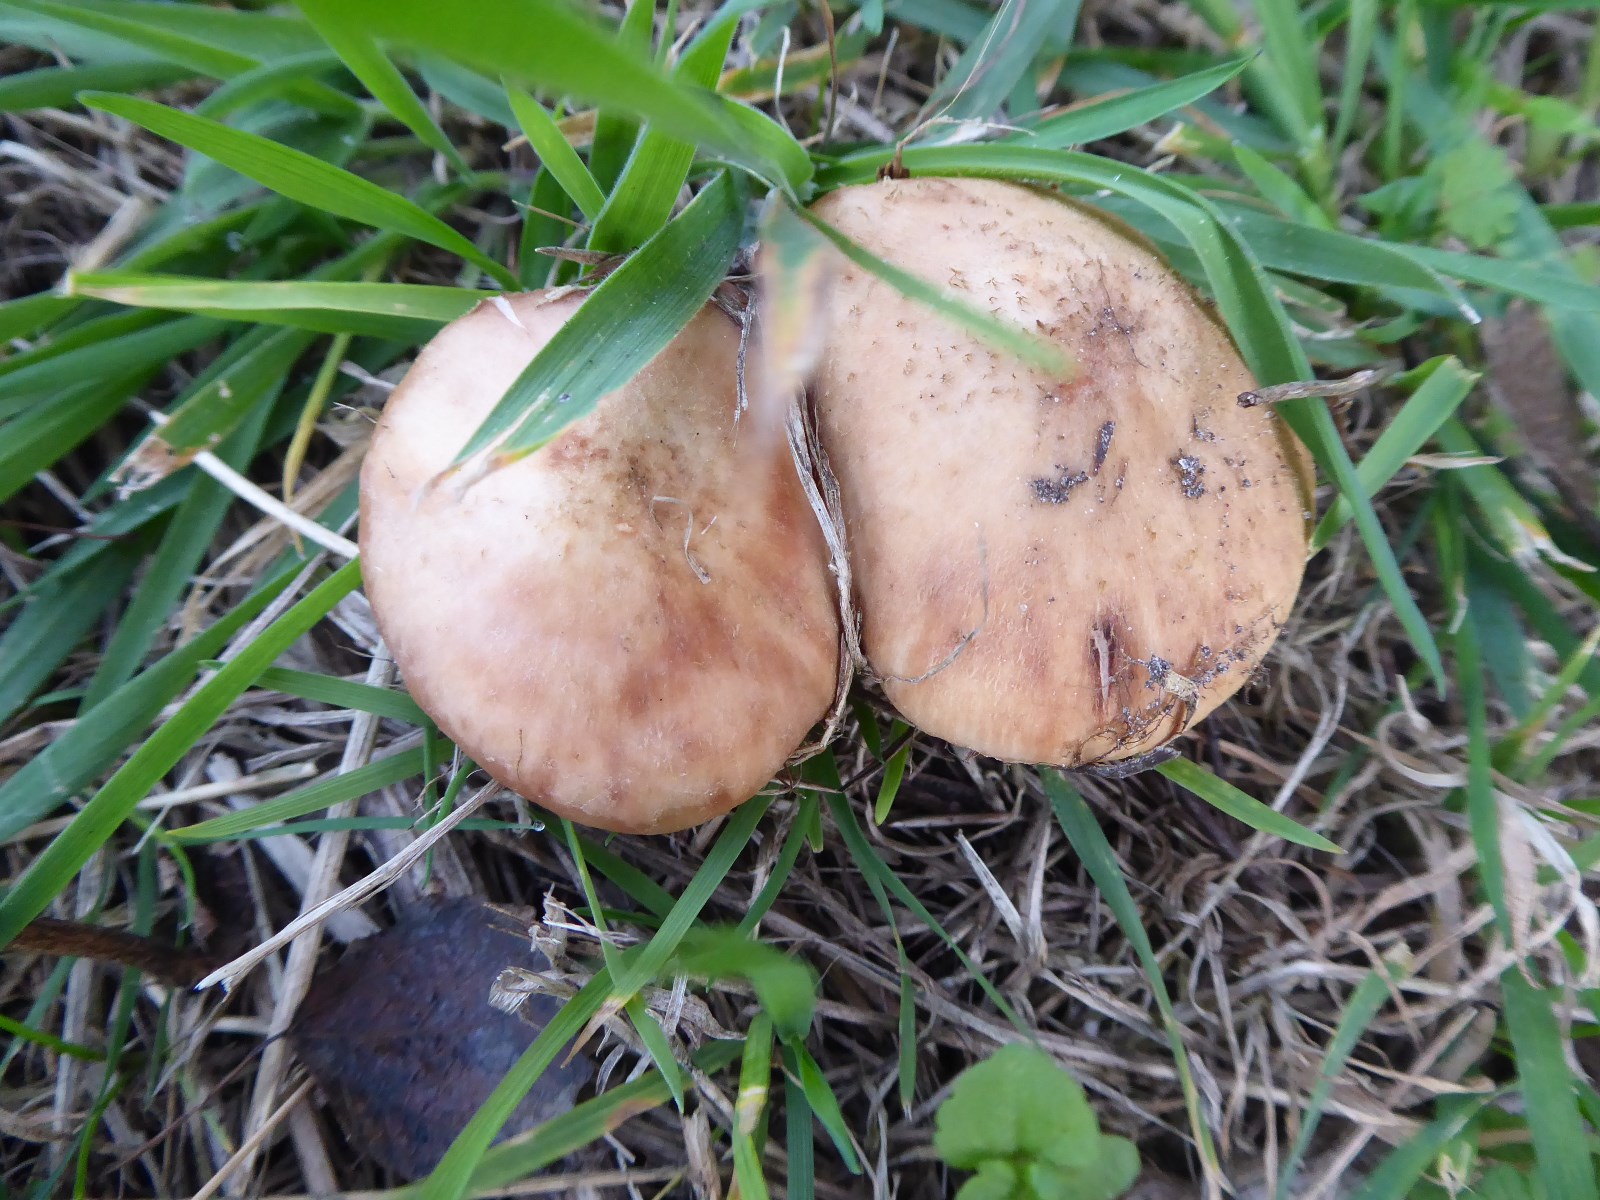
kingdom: Fungi
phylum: Basidiomycota
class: Agaricomycetes
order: Agaricales
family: Physalacriaceae
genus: Armillaria
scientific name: Armillaria lutea
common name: køllestokket honningsvamp
